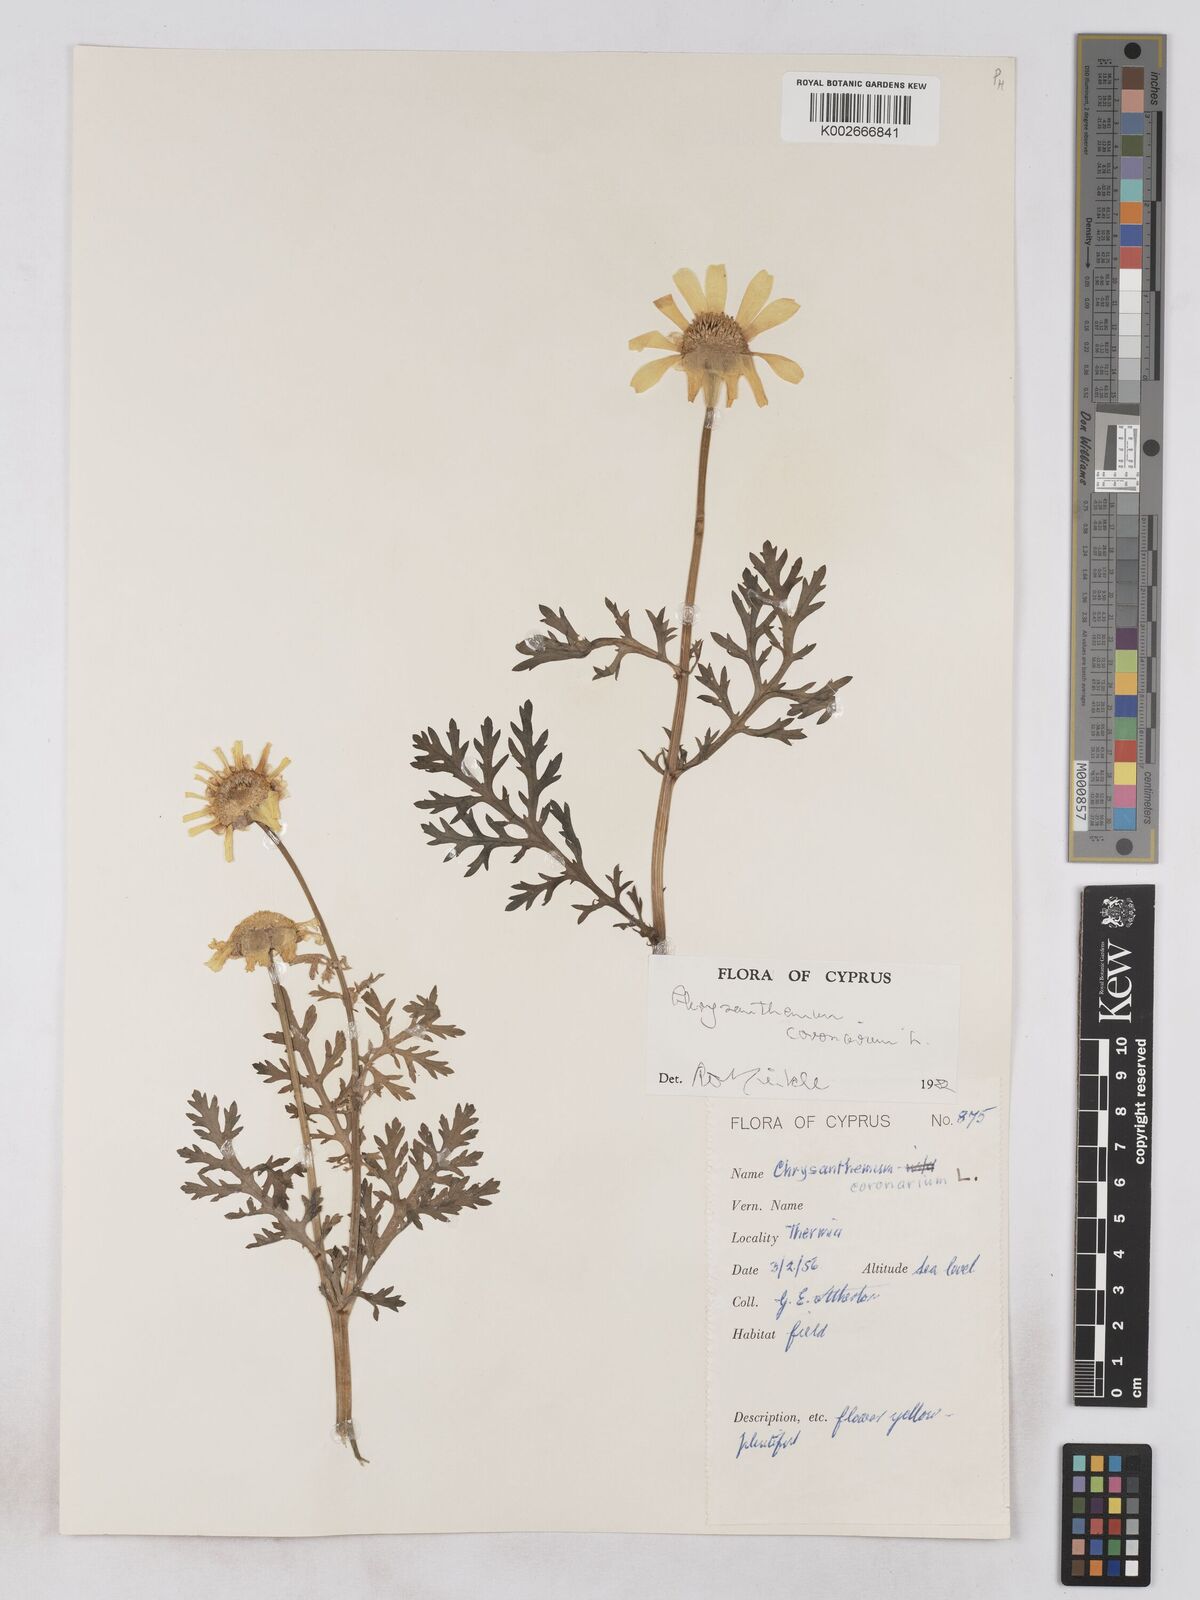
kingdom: Plantae
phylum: Tracheophyta
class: Magnoliopsida
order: Asterales
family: Asteraceae
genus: Glebionis
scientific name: Glebionis coronaria
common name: Crowndaisy
